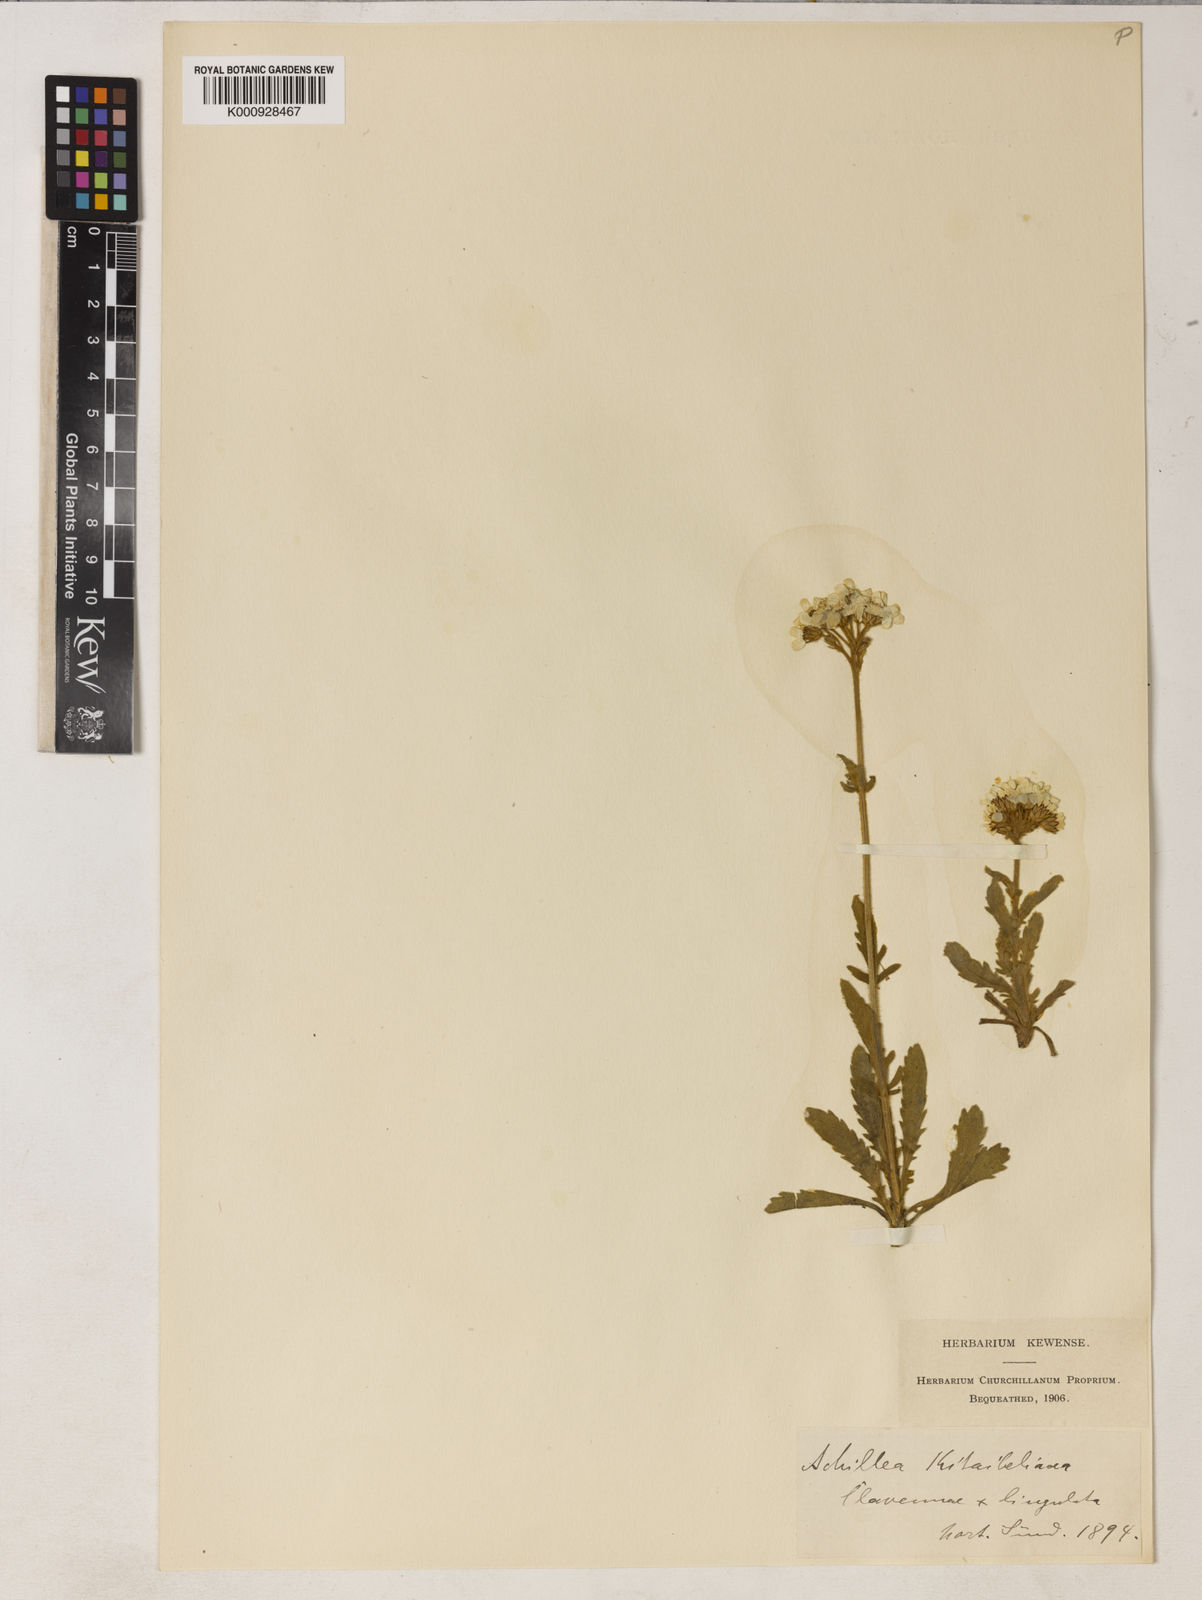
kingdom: Plantae
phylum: Tracheophyta
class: Magnoliopsida
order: Asterales
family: Asteraceae
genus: Achillea
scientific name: Achillea ochroleuca
